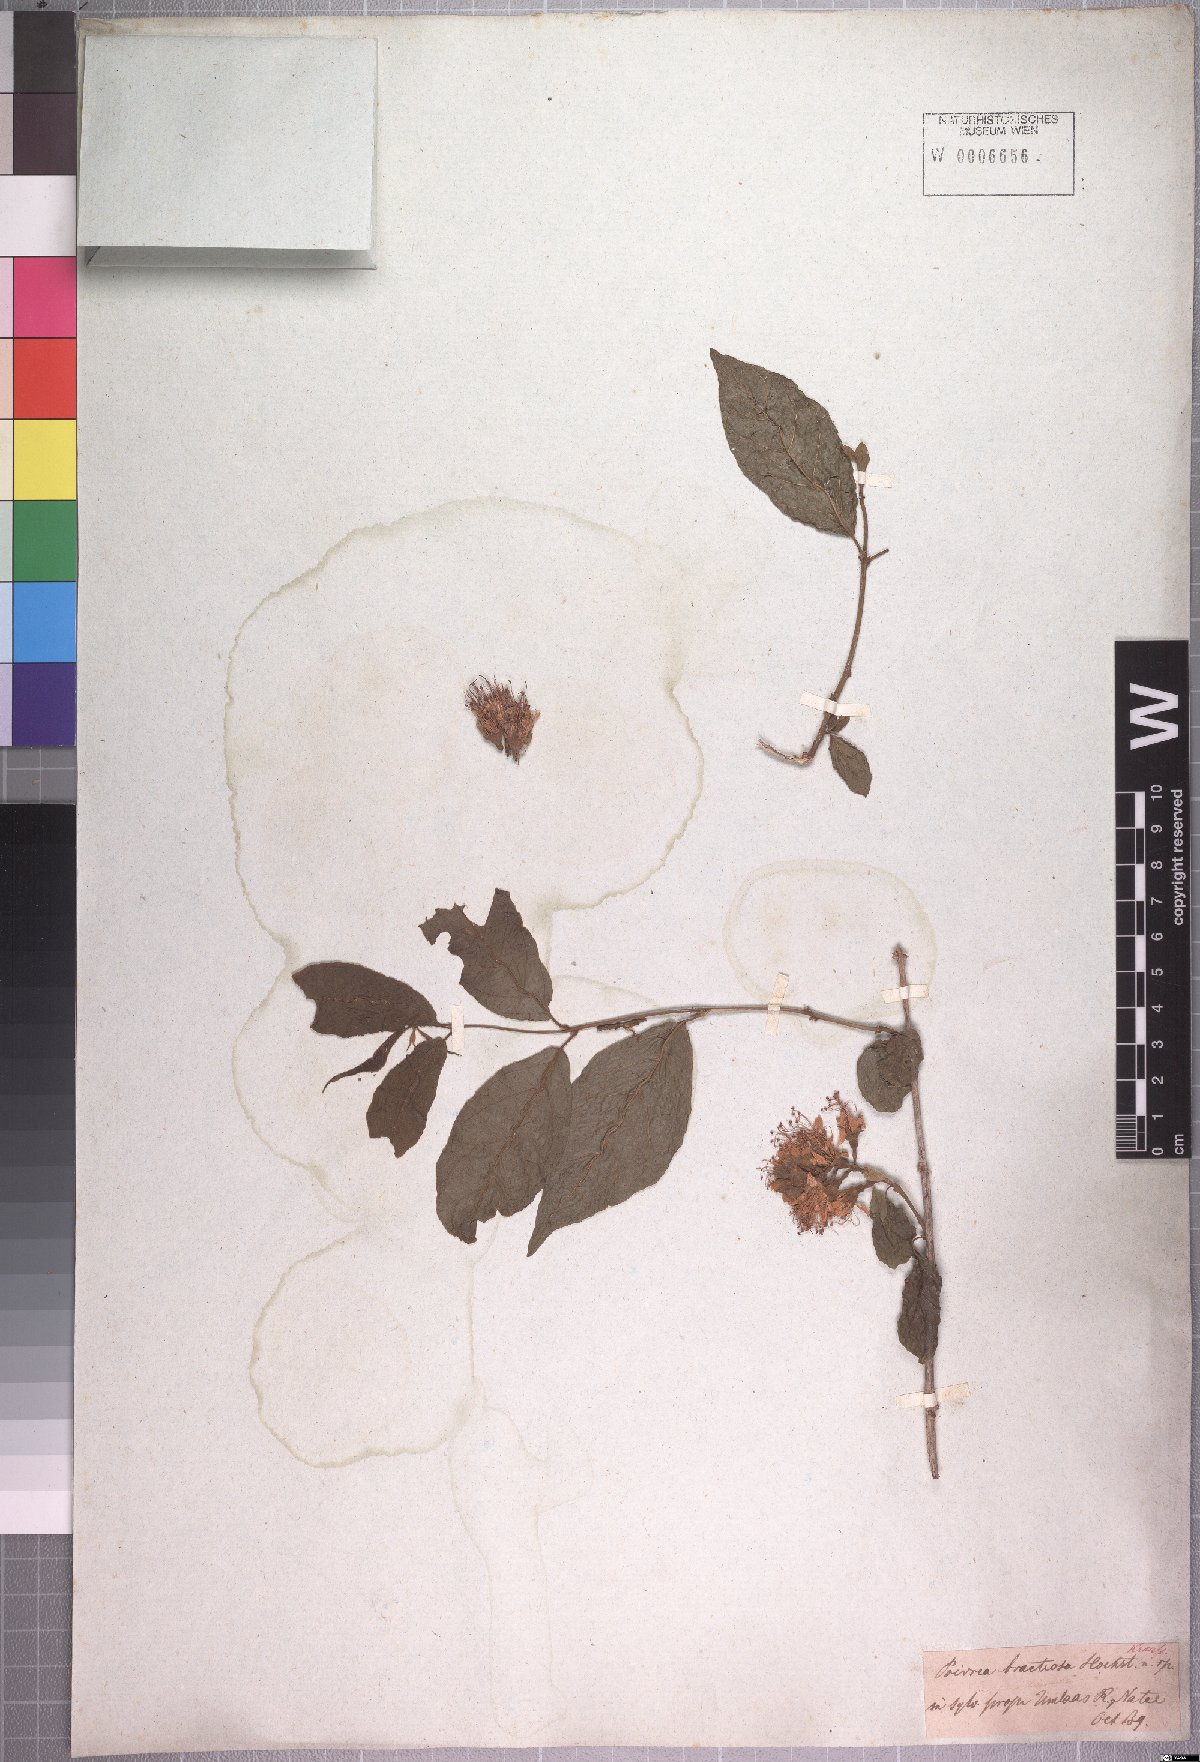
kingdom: Plantae
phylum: Tracheophyta
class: Magnoliopsida
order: Myrtales
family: Combretaceae
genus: Combretum
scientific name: Combretum bracteosum
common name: Hiccup-nut
